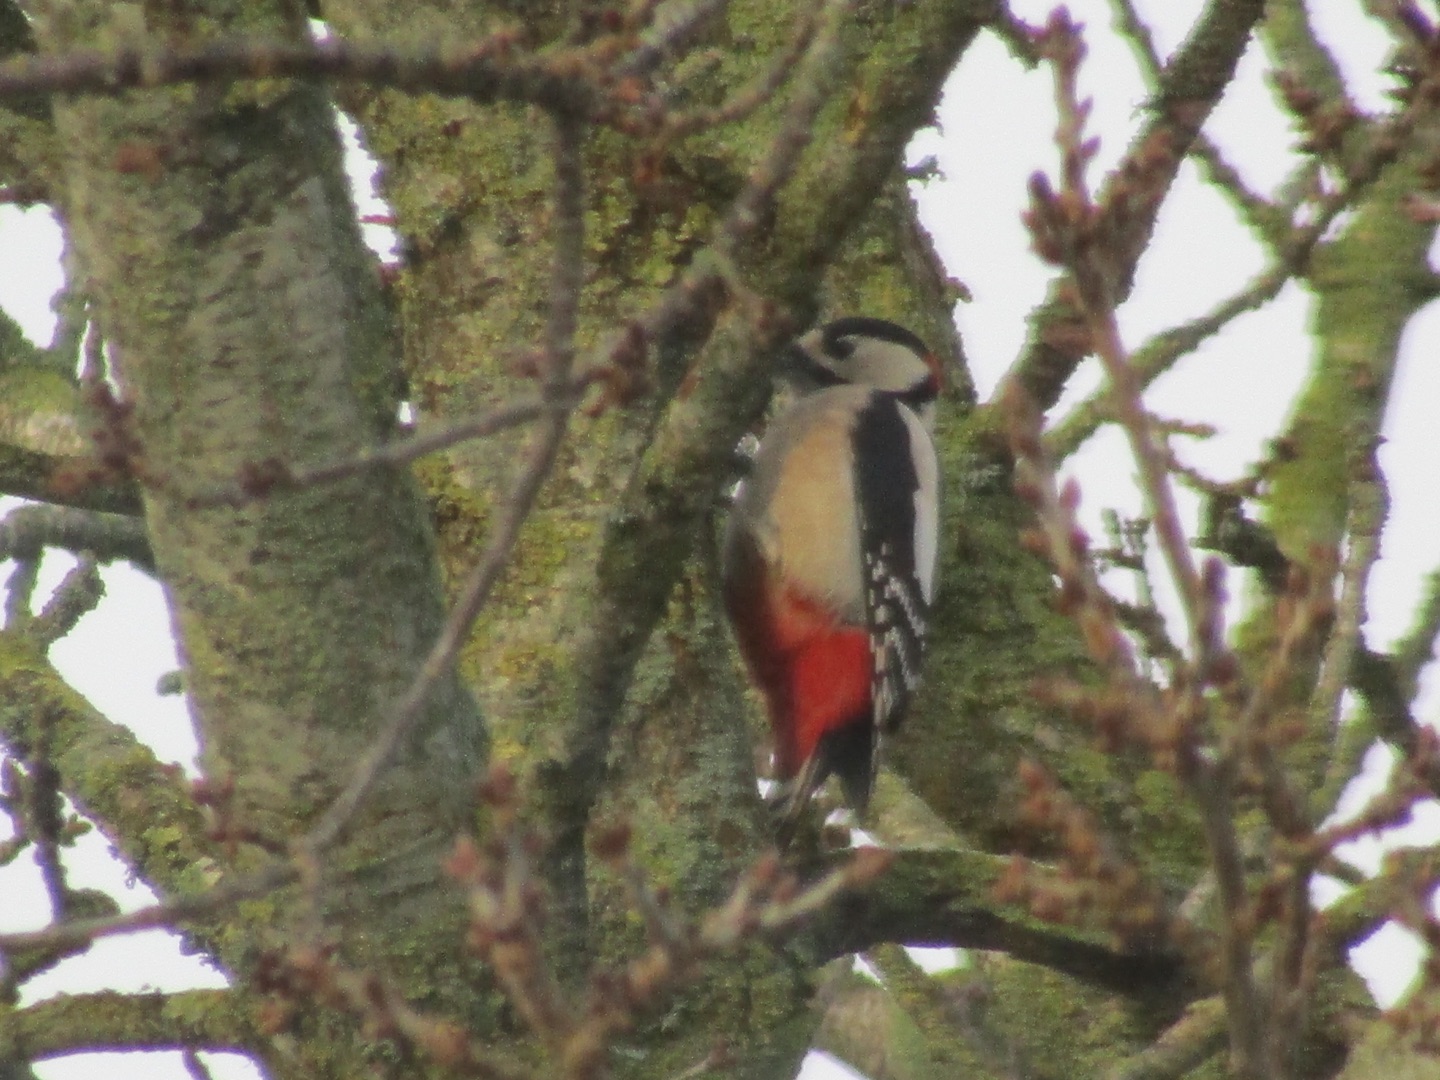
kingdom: Animalia
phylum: Chordata
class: Aves
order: Piciformes
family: Picidae
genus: Dendrocopos
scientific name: Dendrocopos major
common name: Stor flagspætte
